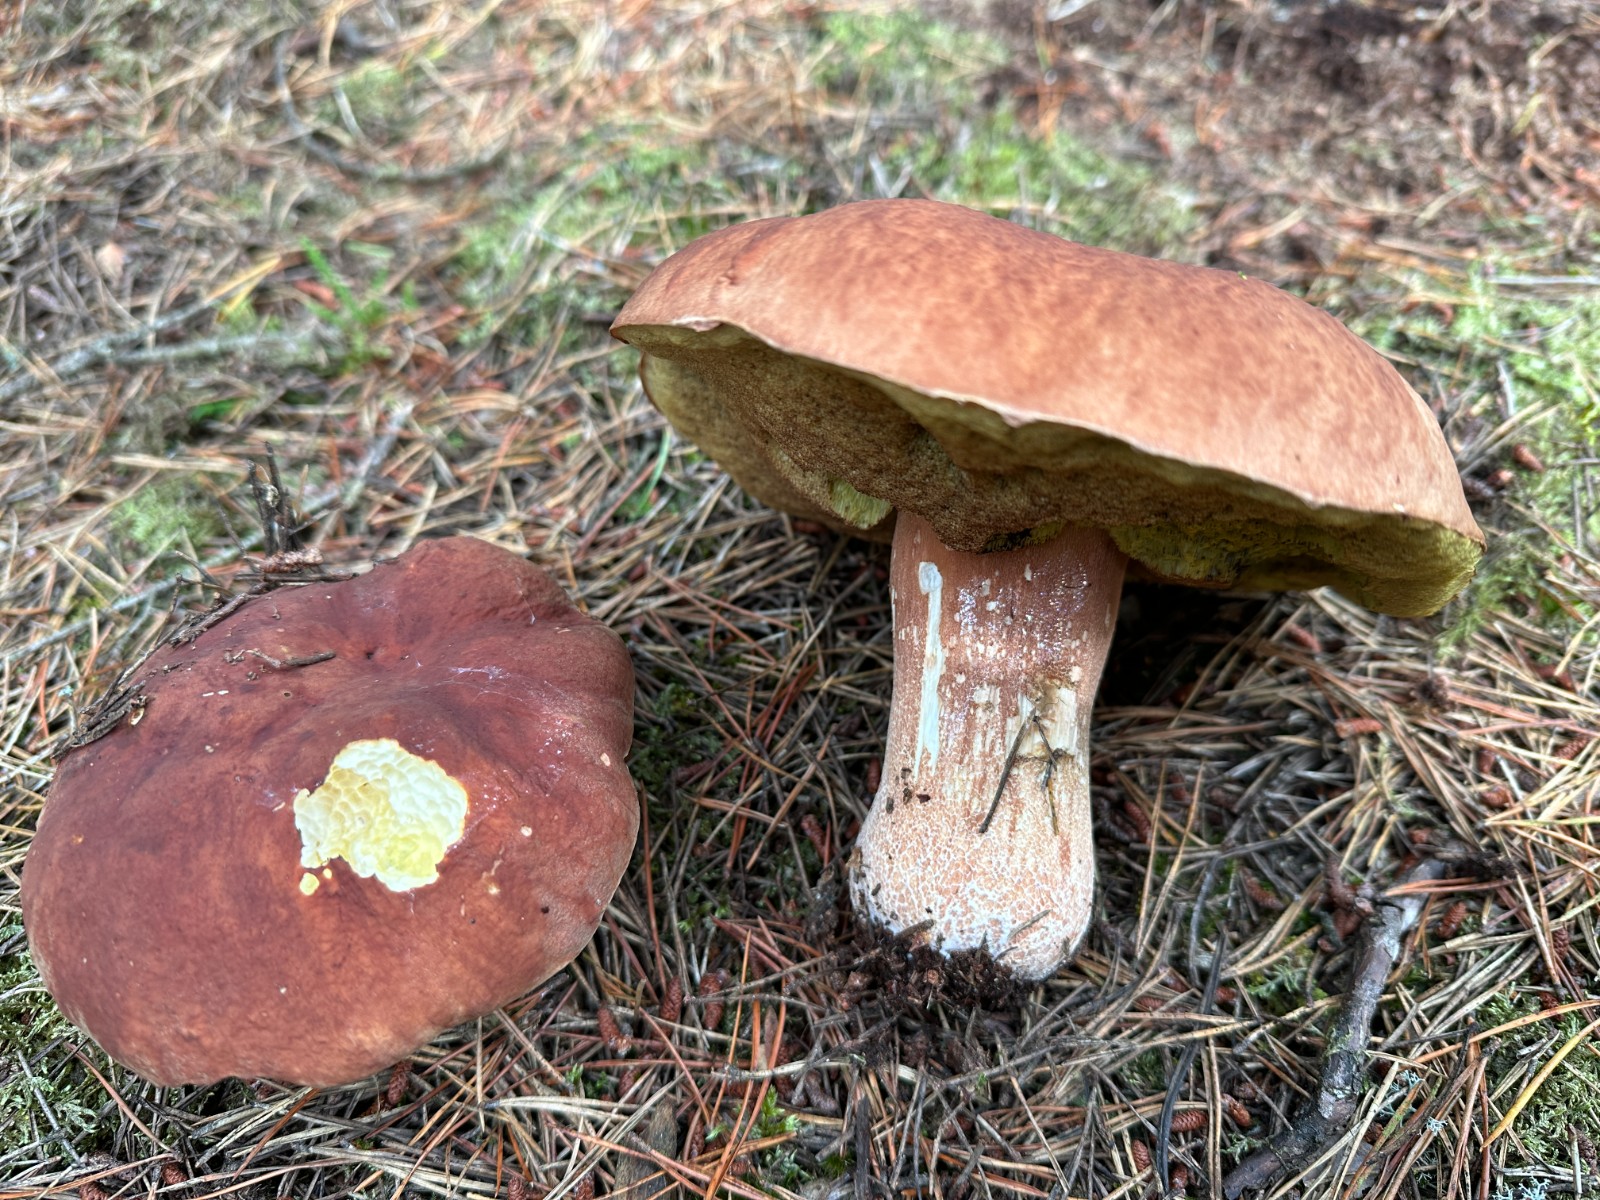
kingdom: Fungi
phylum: Basidiomycota
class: Agaricomycetes
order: Boletales
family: Boletaceae
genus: Boletus
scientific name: Boletus pinophilus
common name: rødbrun rørhat
